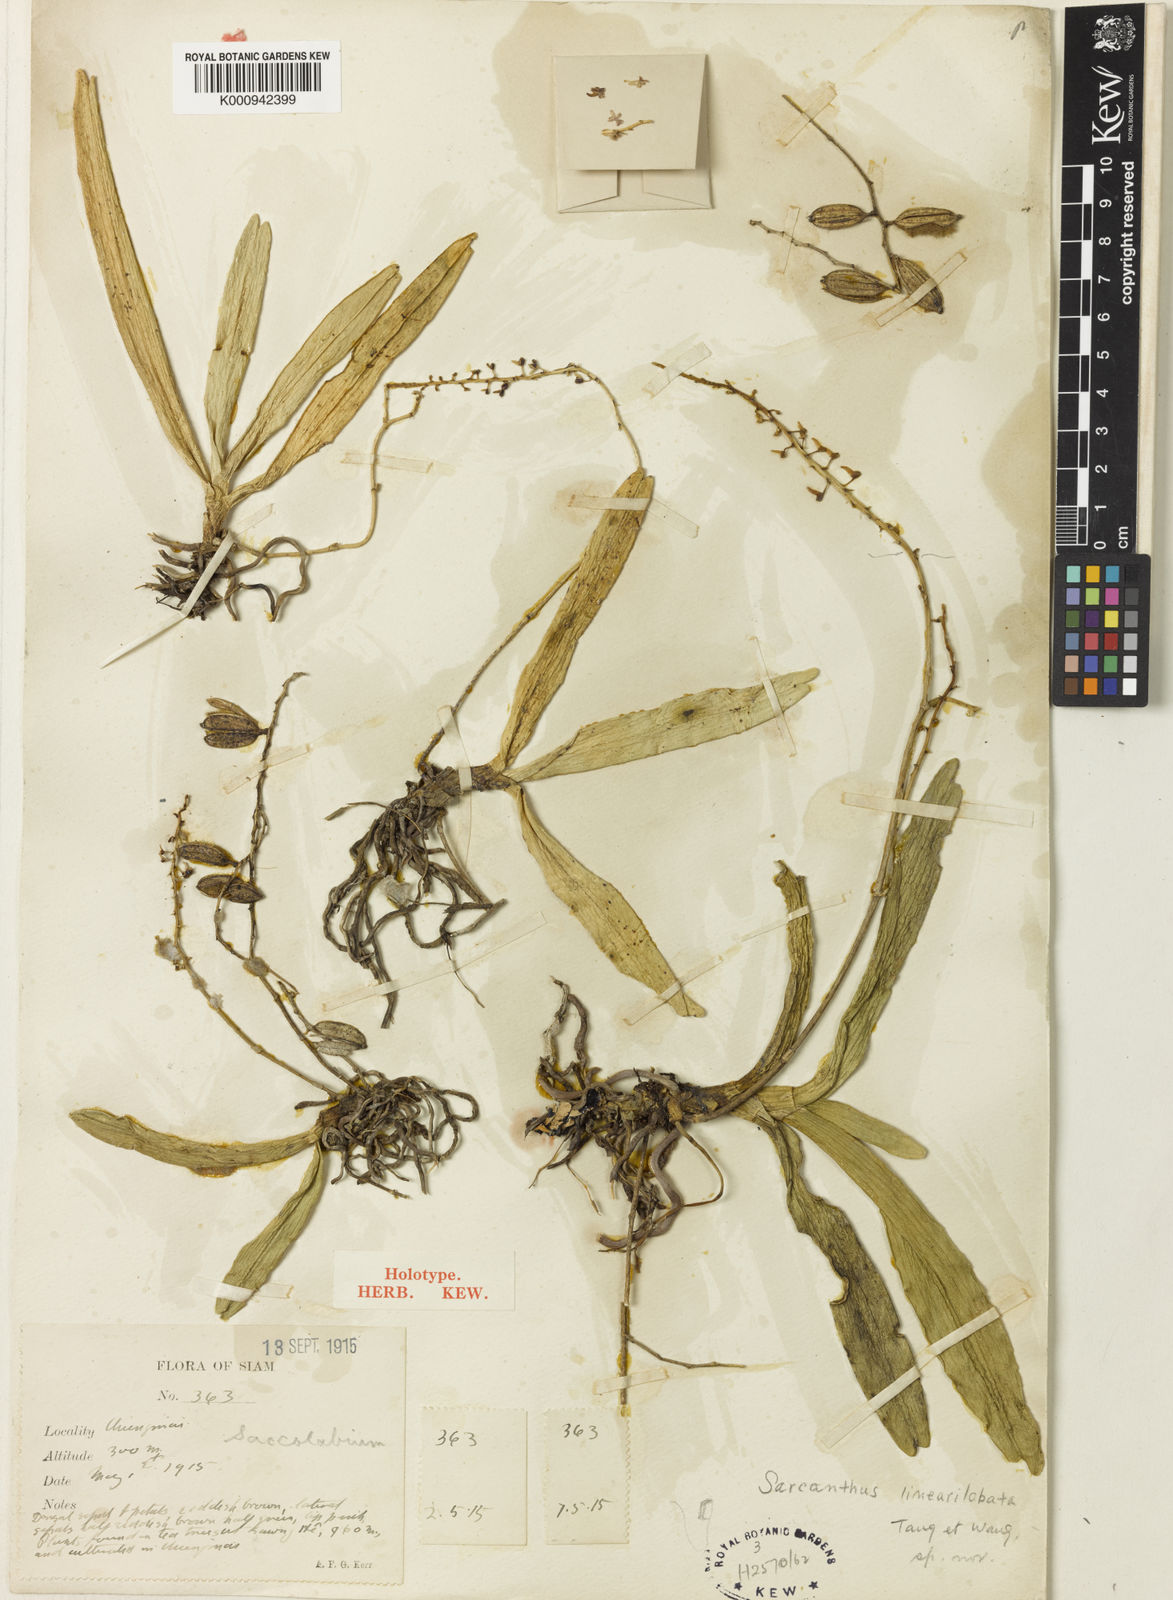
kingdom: Plantae
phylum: Tracheophyta
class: Liliopsida
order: Asparagales
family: Orchidaceae
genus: Cleisostoma
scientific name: Cleisostoma linearilobatum
